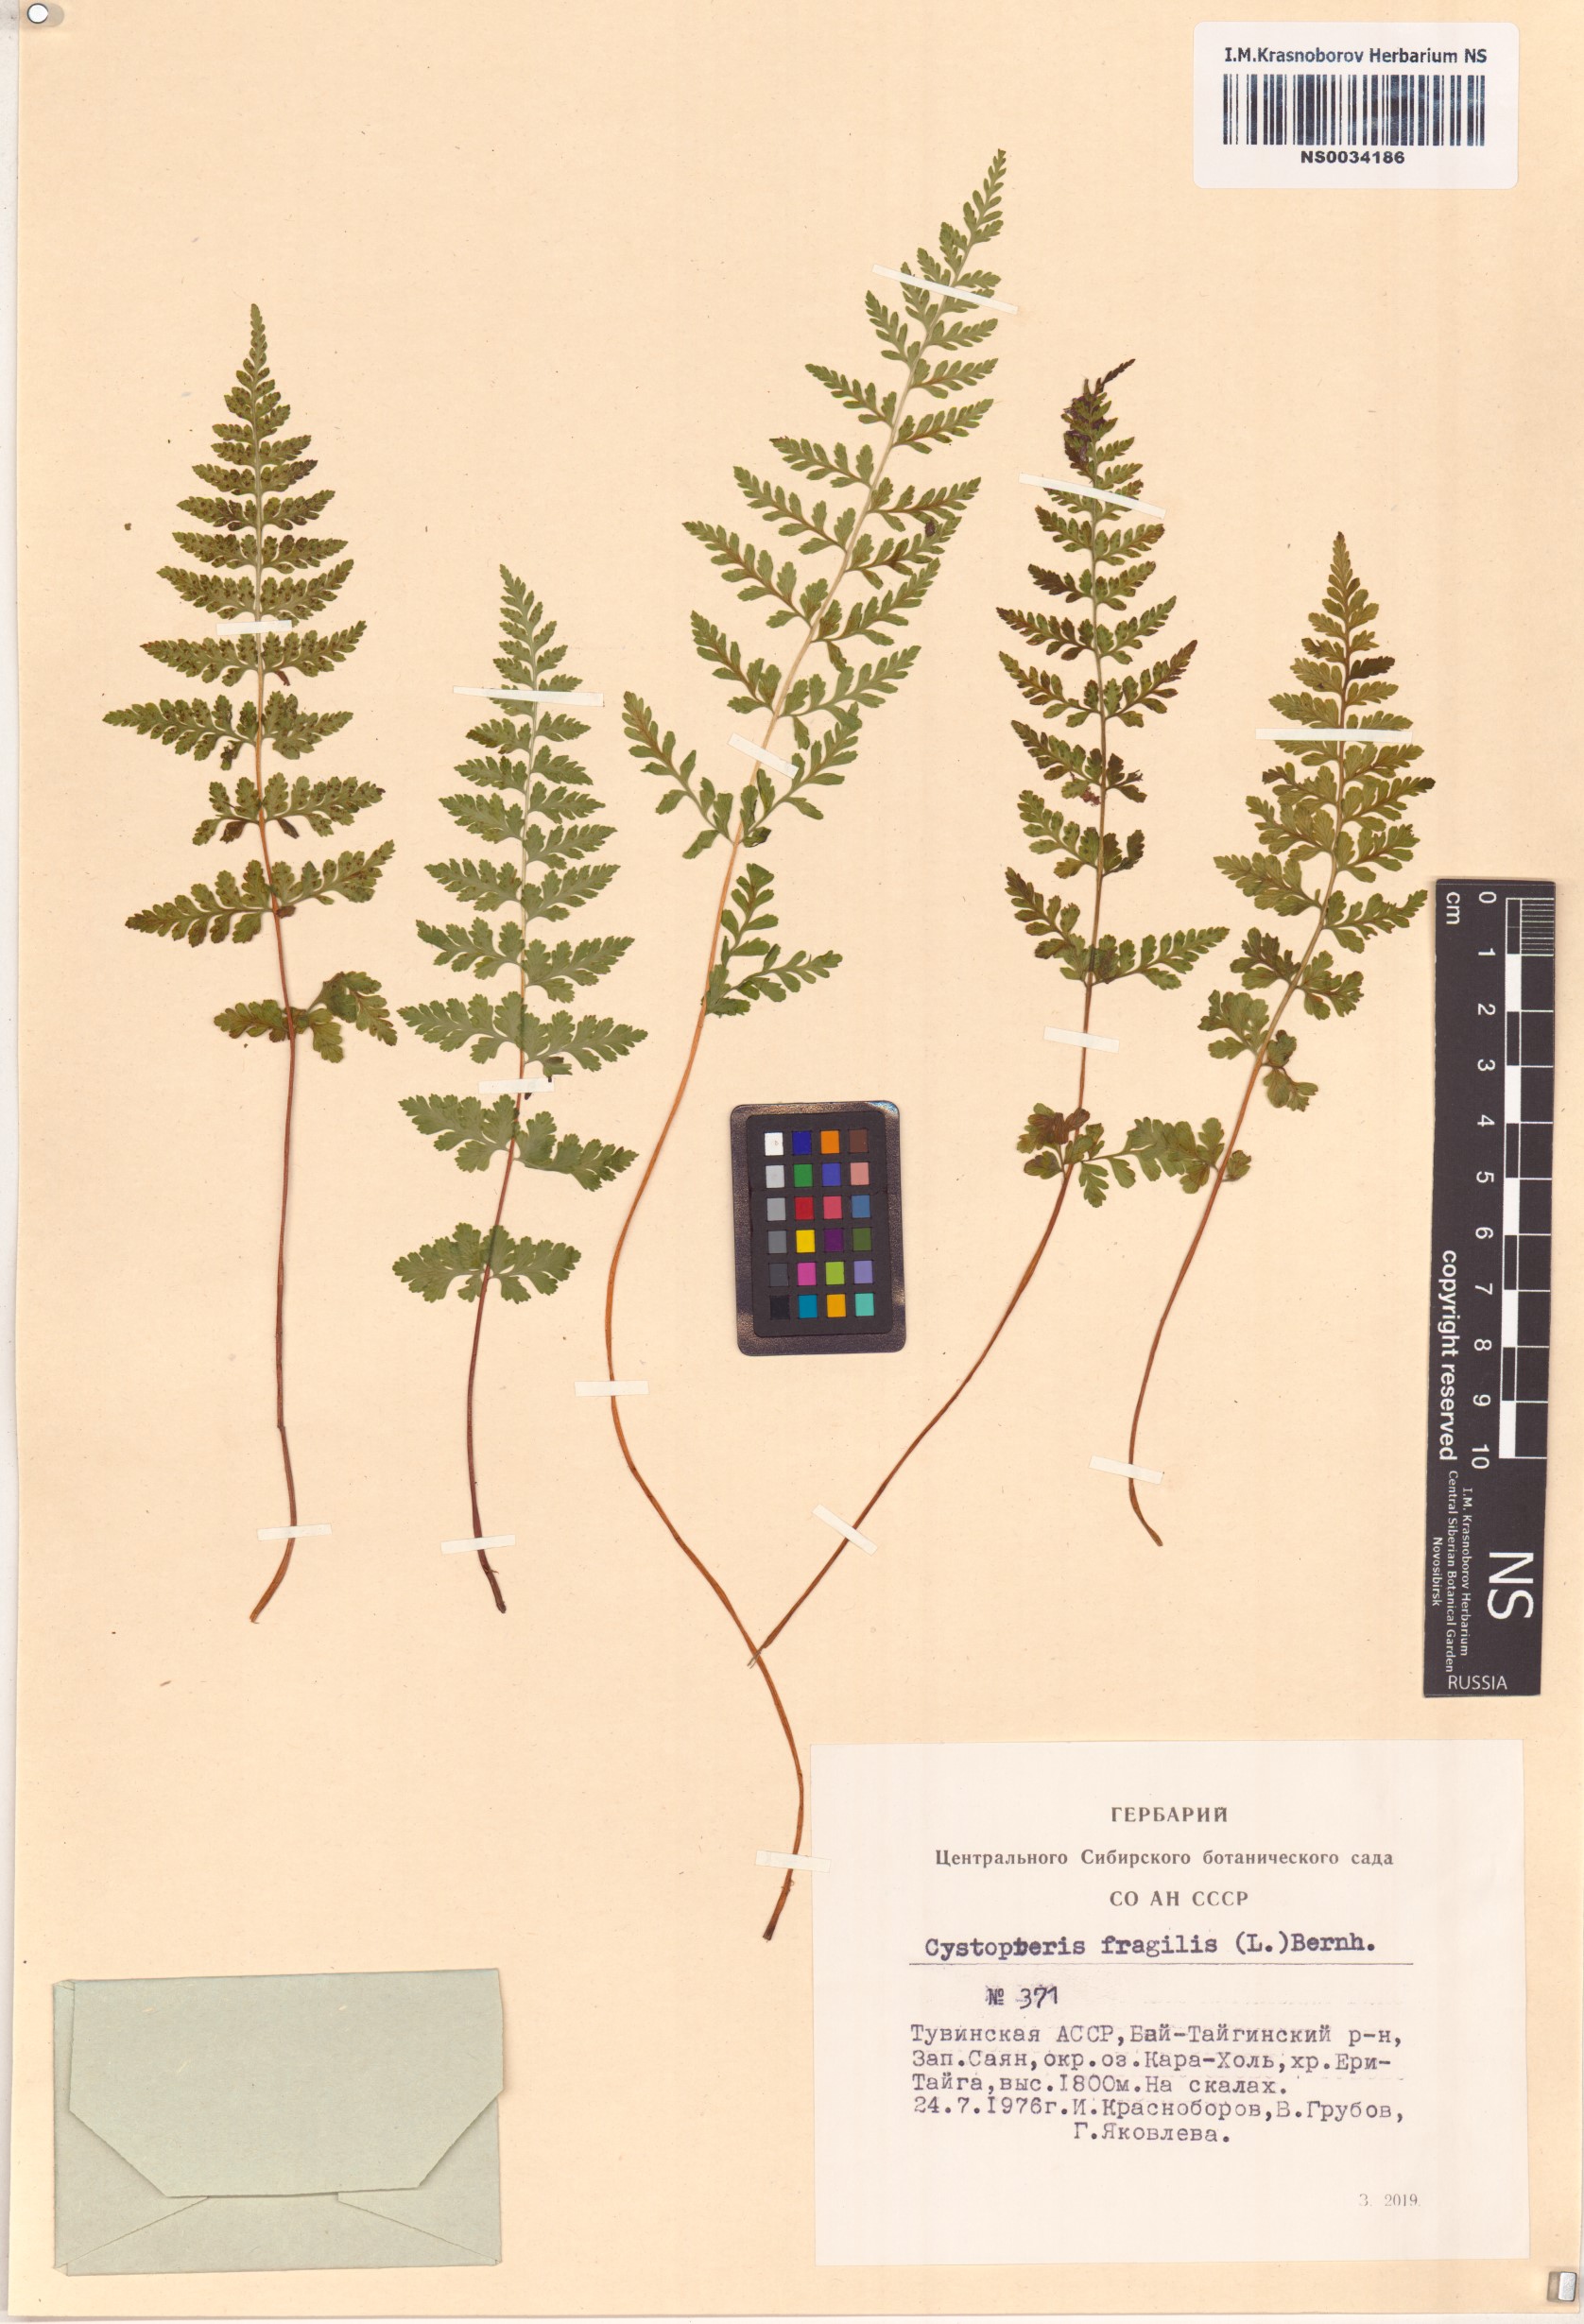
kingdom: Plantae
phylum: Tracheophyta
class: Polypodiopsida
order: Polypodiales
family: Cystopteridaceae
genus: Cystopteris
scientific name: Cystopteris fragilis
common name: Brittle bladder fern
